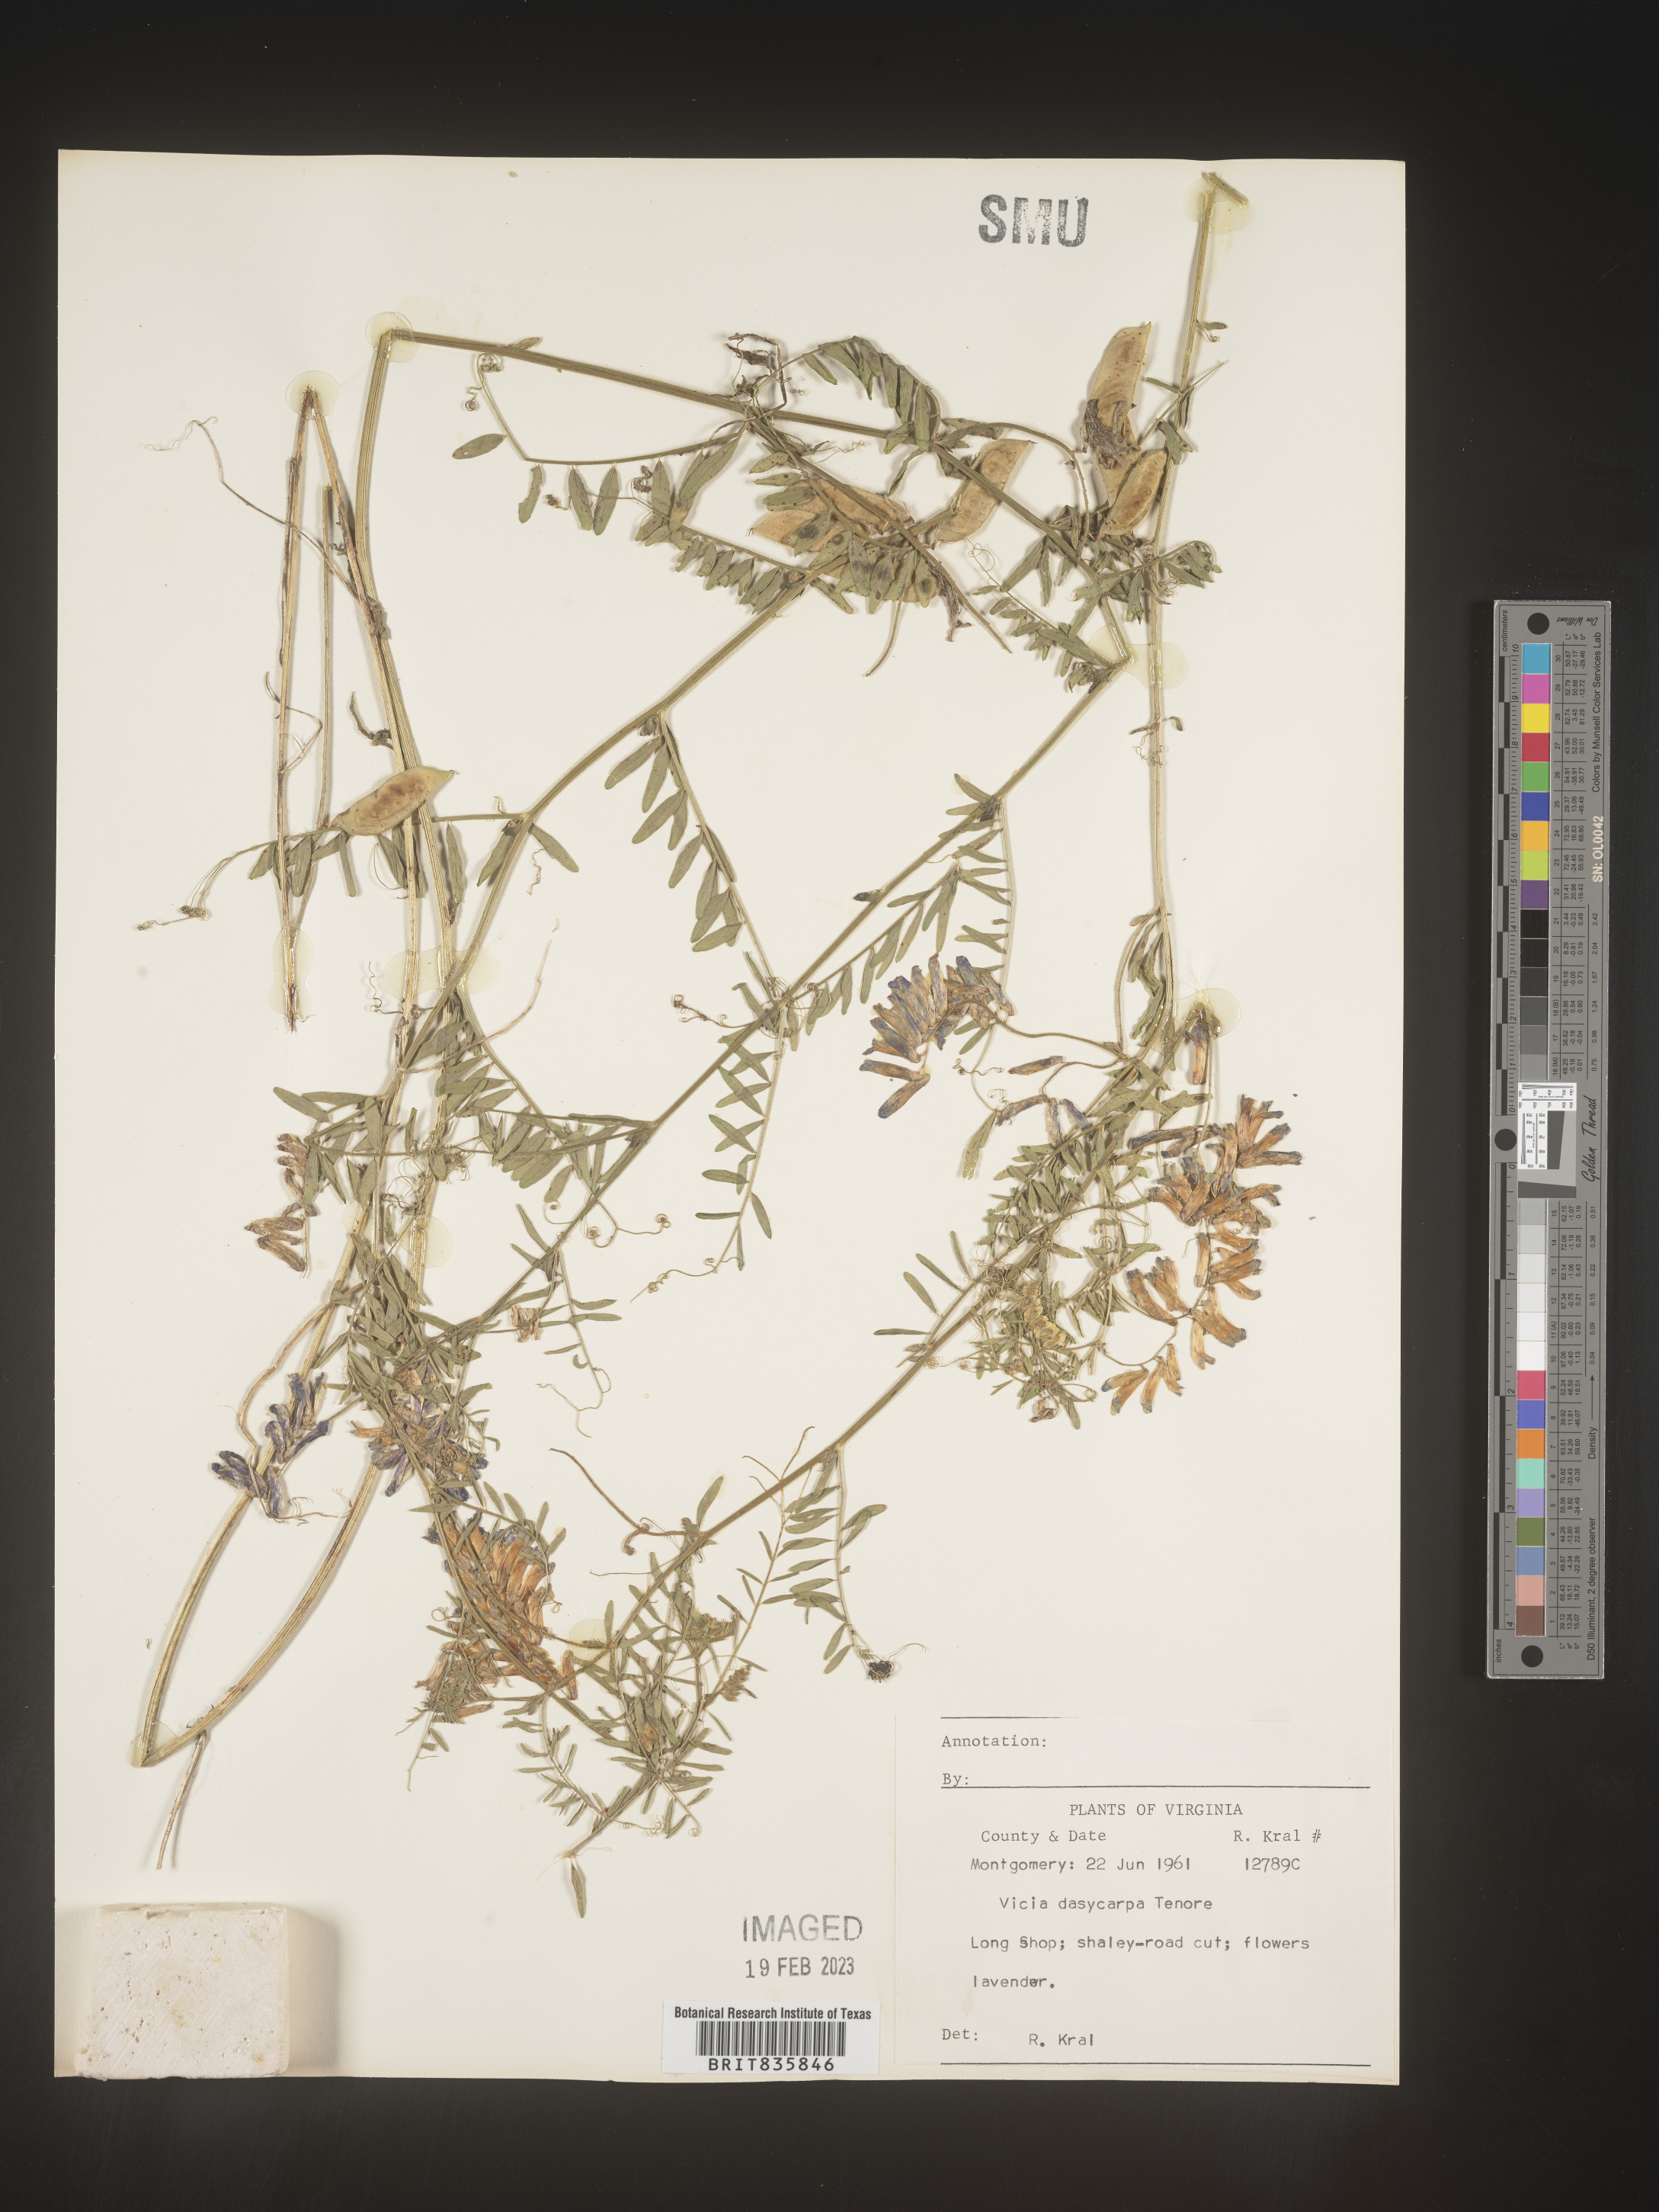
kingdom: Plantae
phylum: Tracheophyta
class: Magnoliopsida
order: Fabales
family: Fabaceae
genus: Vicia
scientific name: Vicia villosa
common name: Fodder vetch
